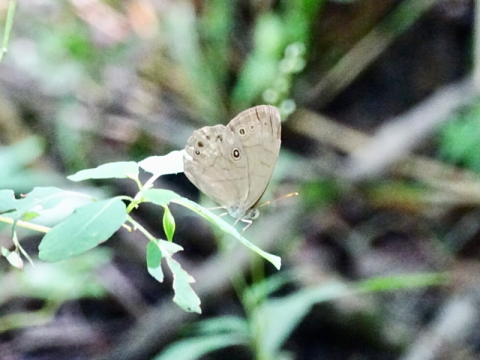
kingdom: Animalia
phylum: Arthropoda
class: Insecta
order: Lepidoptera
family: Nymphalidae
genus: Lethe
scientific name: Lethe eurydice
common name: Appalachian Eyed Brown
